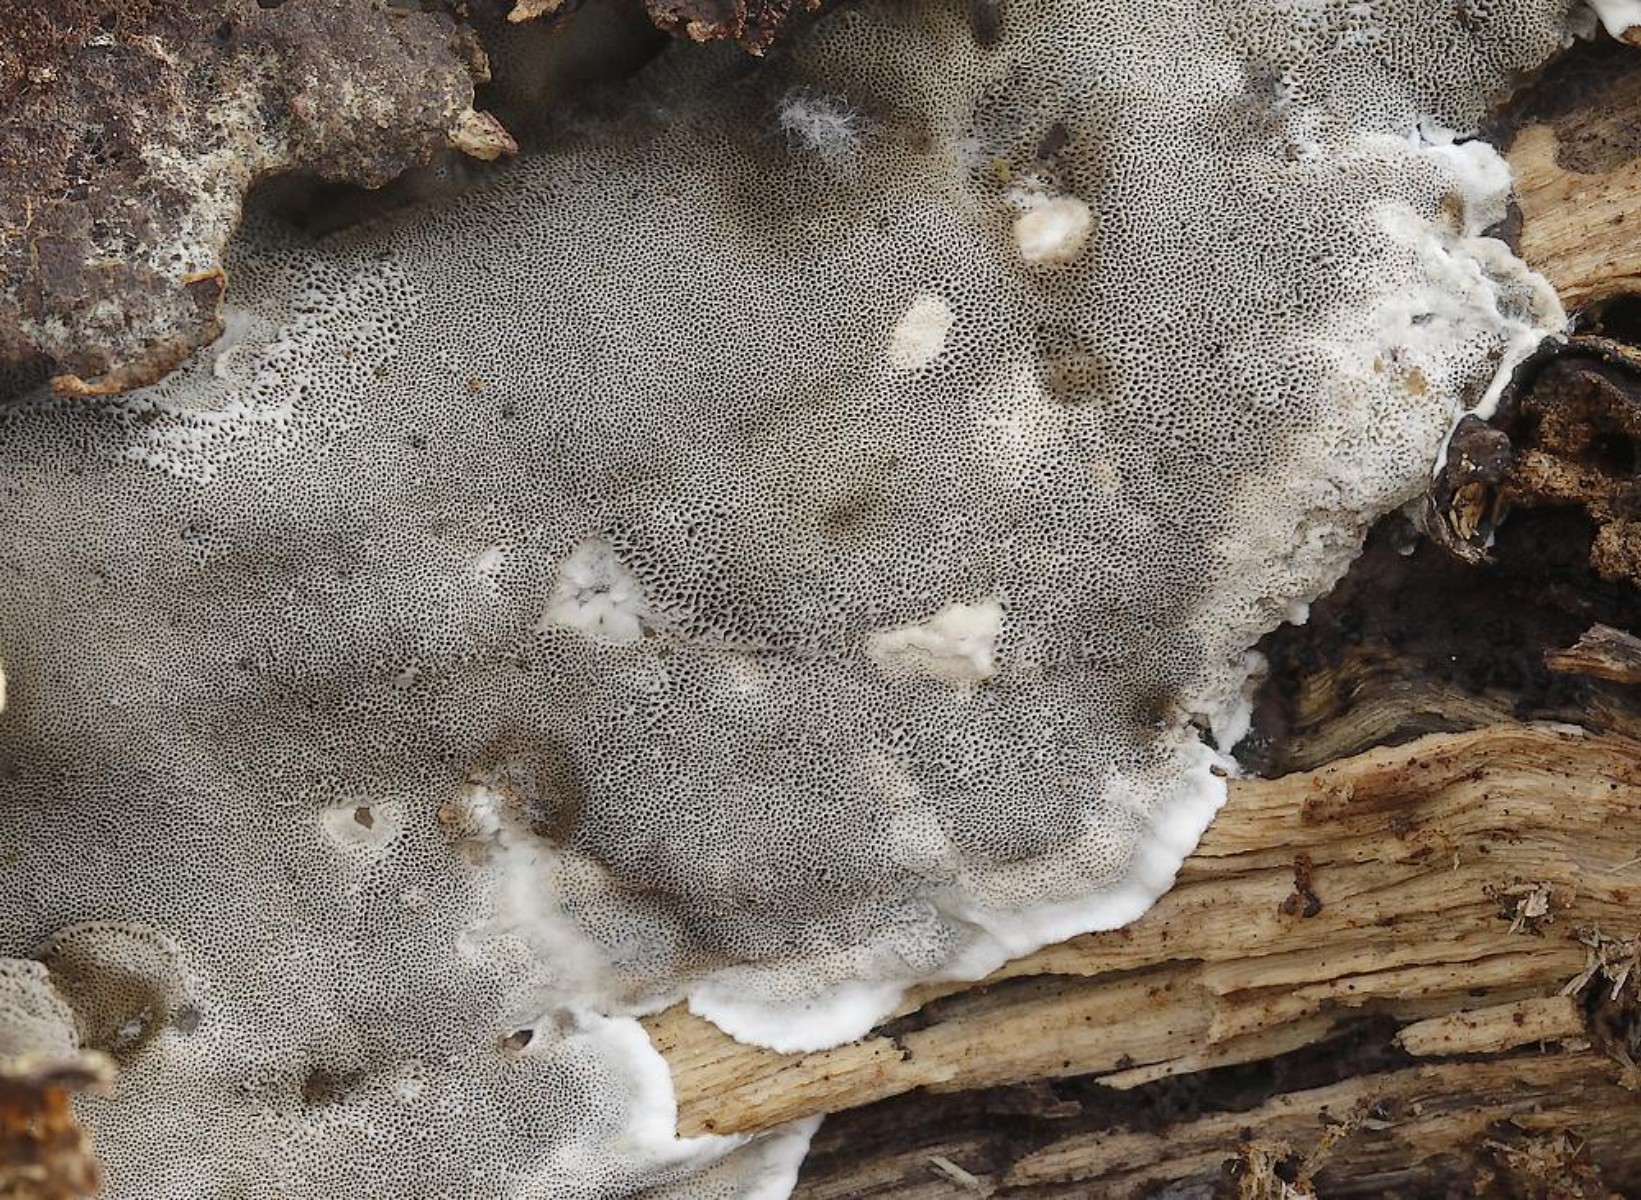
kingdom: Fungi
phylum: Basidiomycota
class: Agaricomycetes
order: Polyporales
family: Phanerochaetaceae
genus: Bjerkandera
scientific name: Bjerkandera adusta
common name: sveden sodporesvamp
